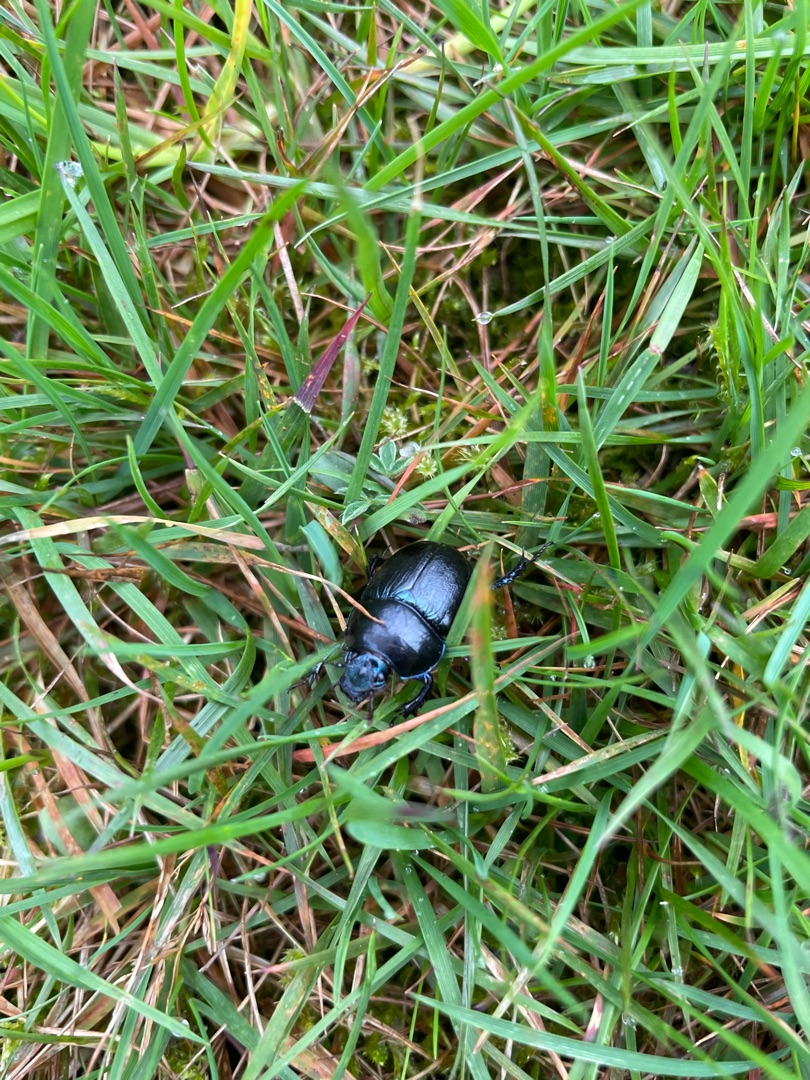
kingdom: Animalia
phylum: Arthropoda
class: Insecta
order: Coleoptera
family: Geotrupidae
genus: Anoplotrupes
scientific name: Anoplotrupes stercorosus
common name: Skovskarnbasse
